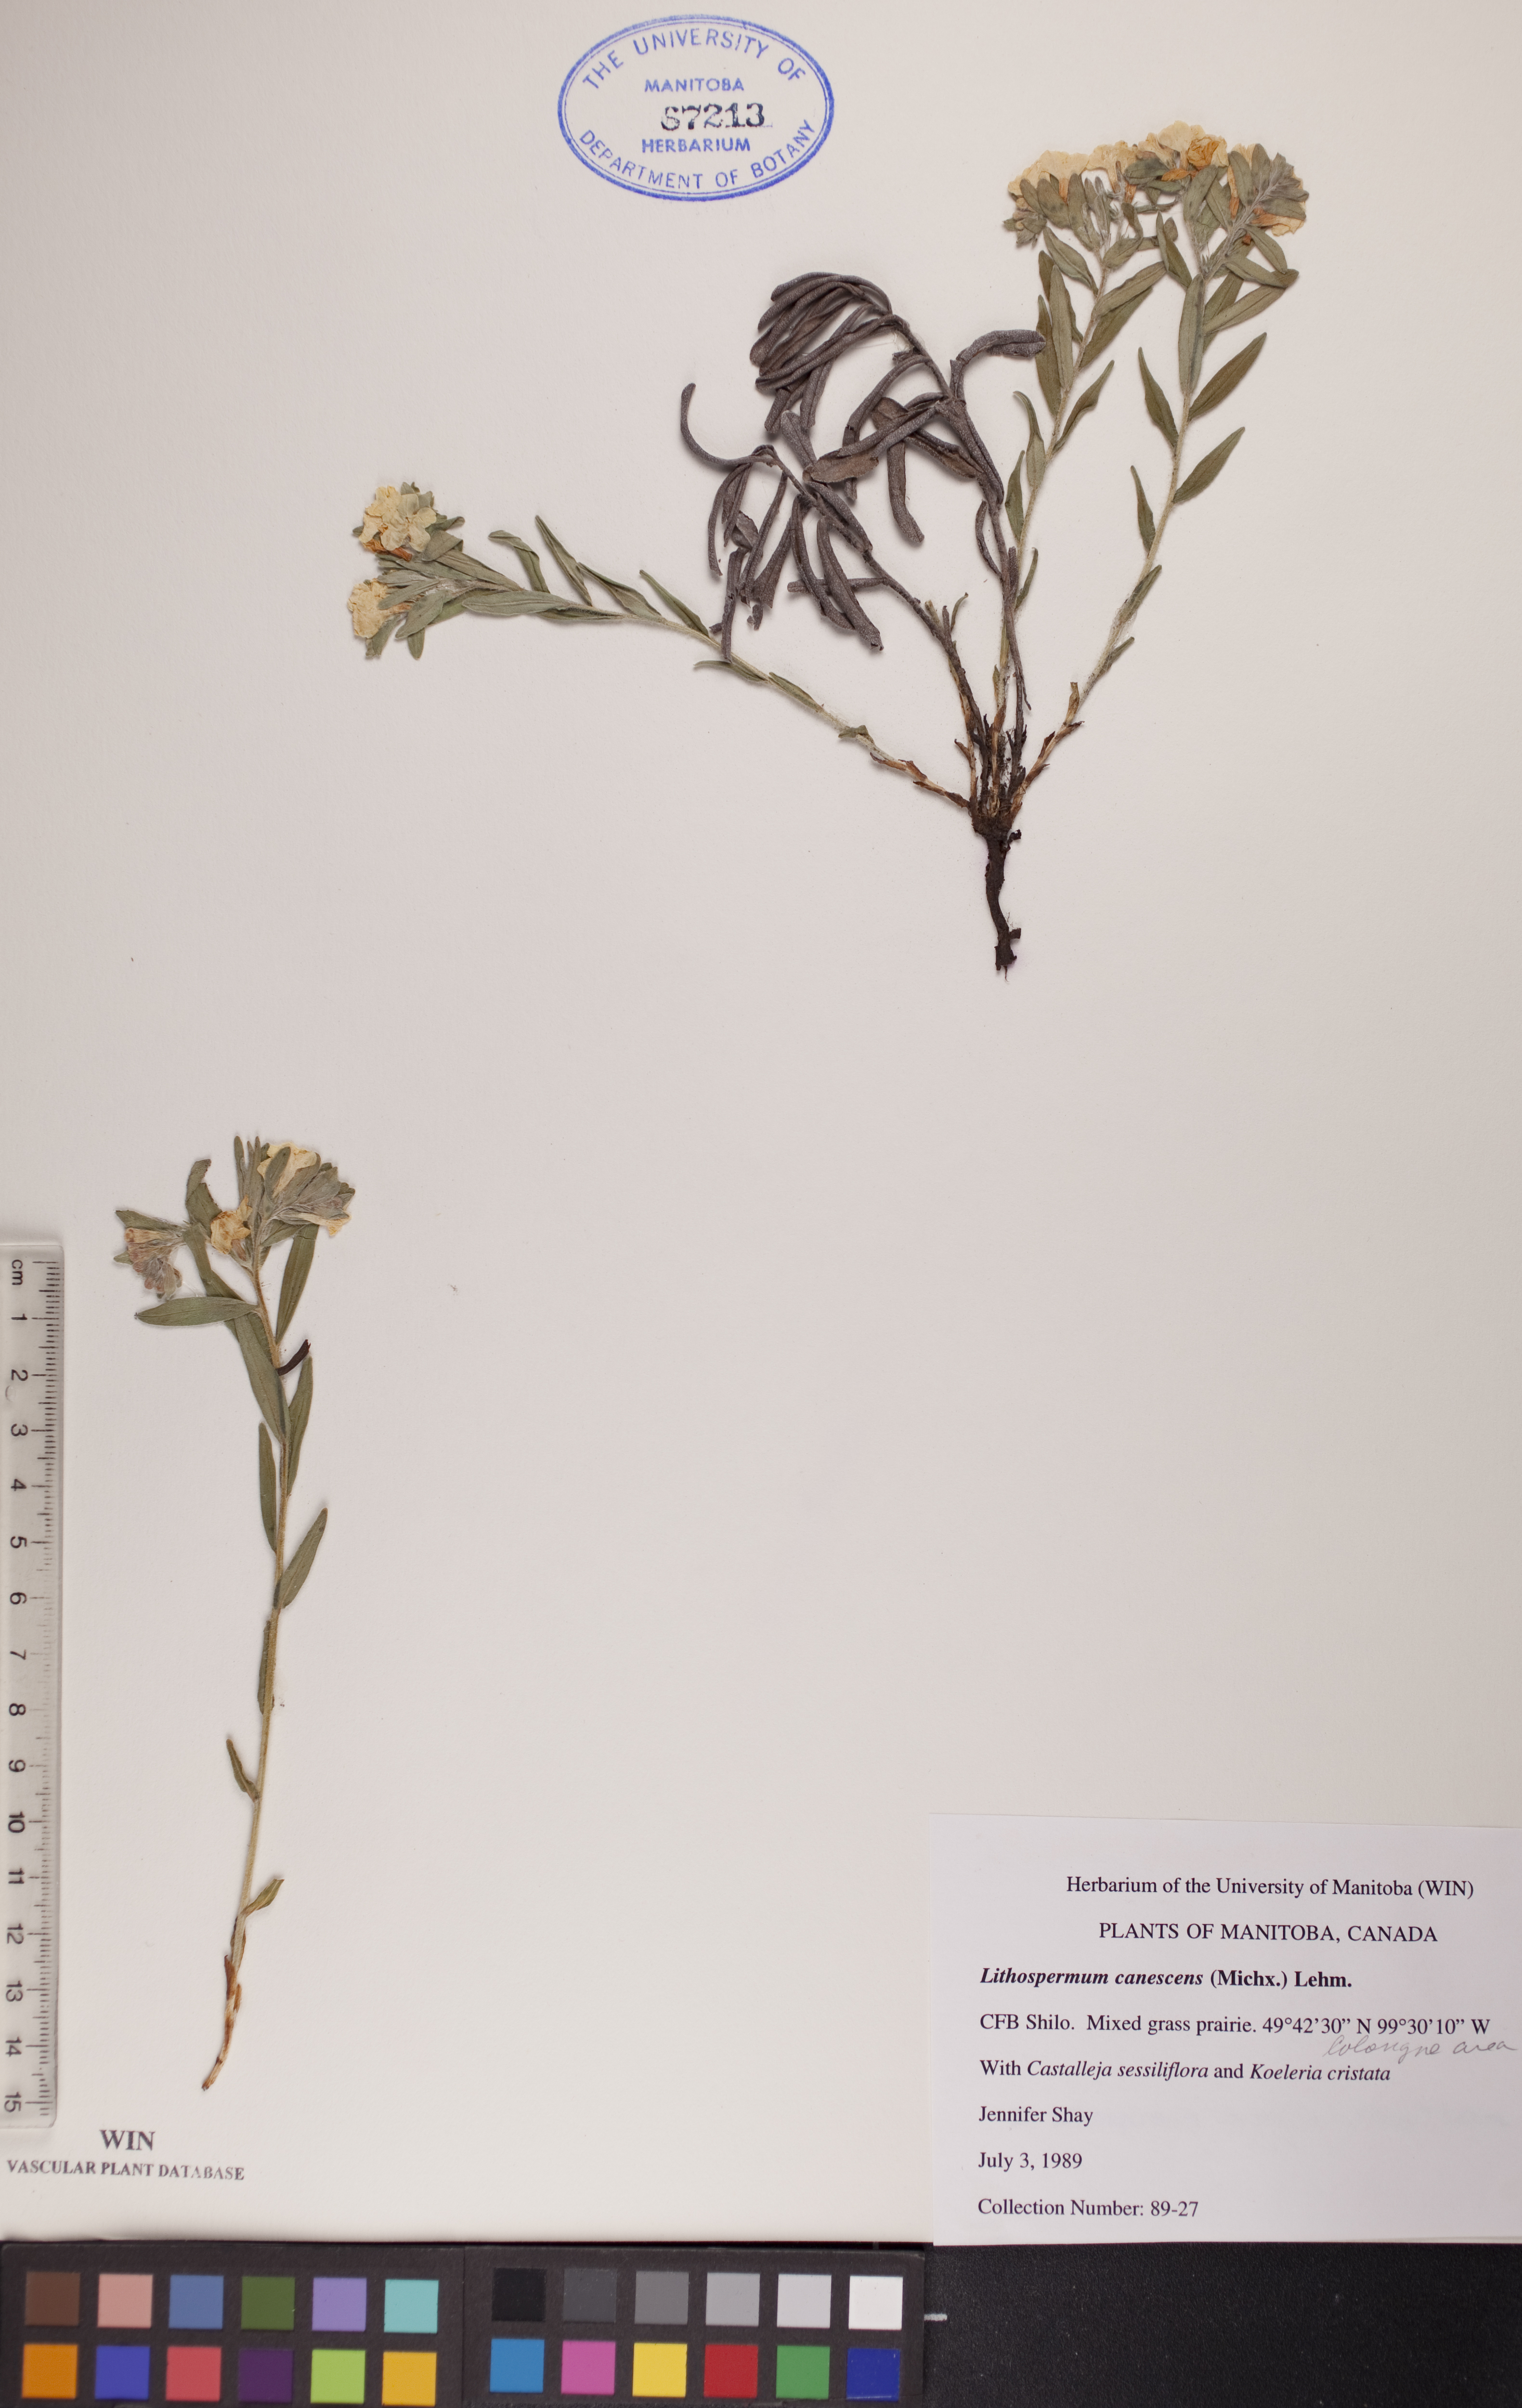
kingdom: Plantae
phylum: Tracheophyta
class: Magnoliopsida
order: Boraginales
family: Boraginaceae
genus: Lithospermum
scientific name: Lithospermum canescens
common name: Hoary puccoon
